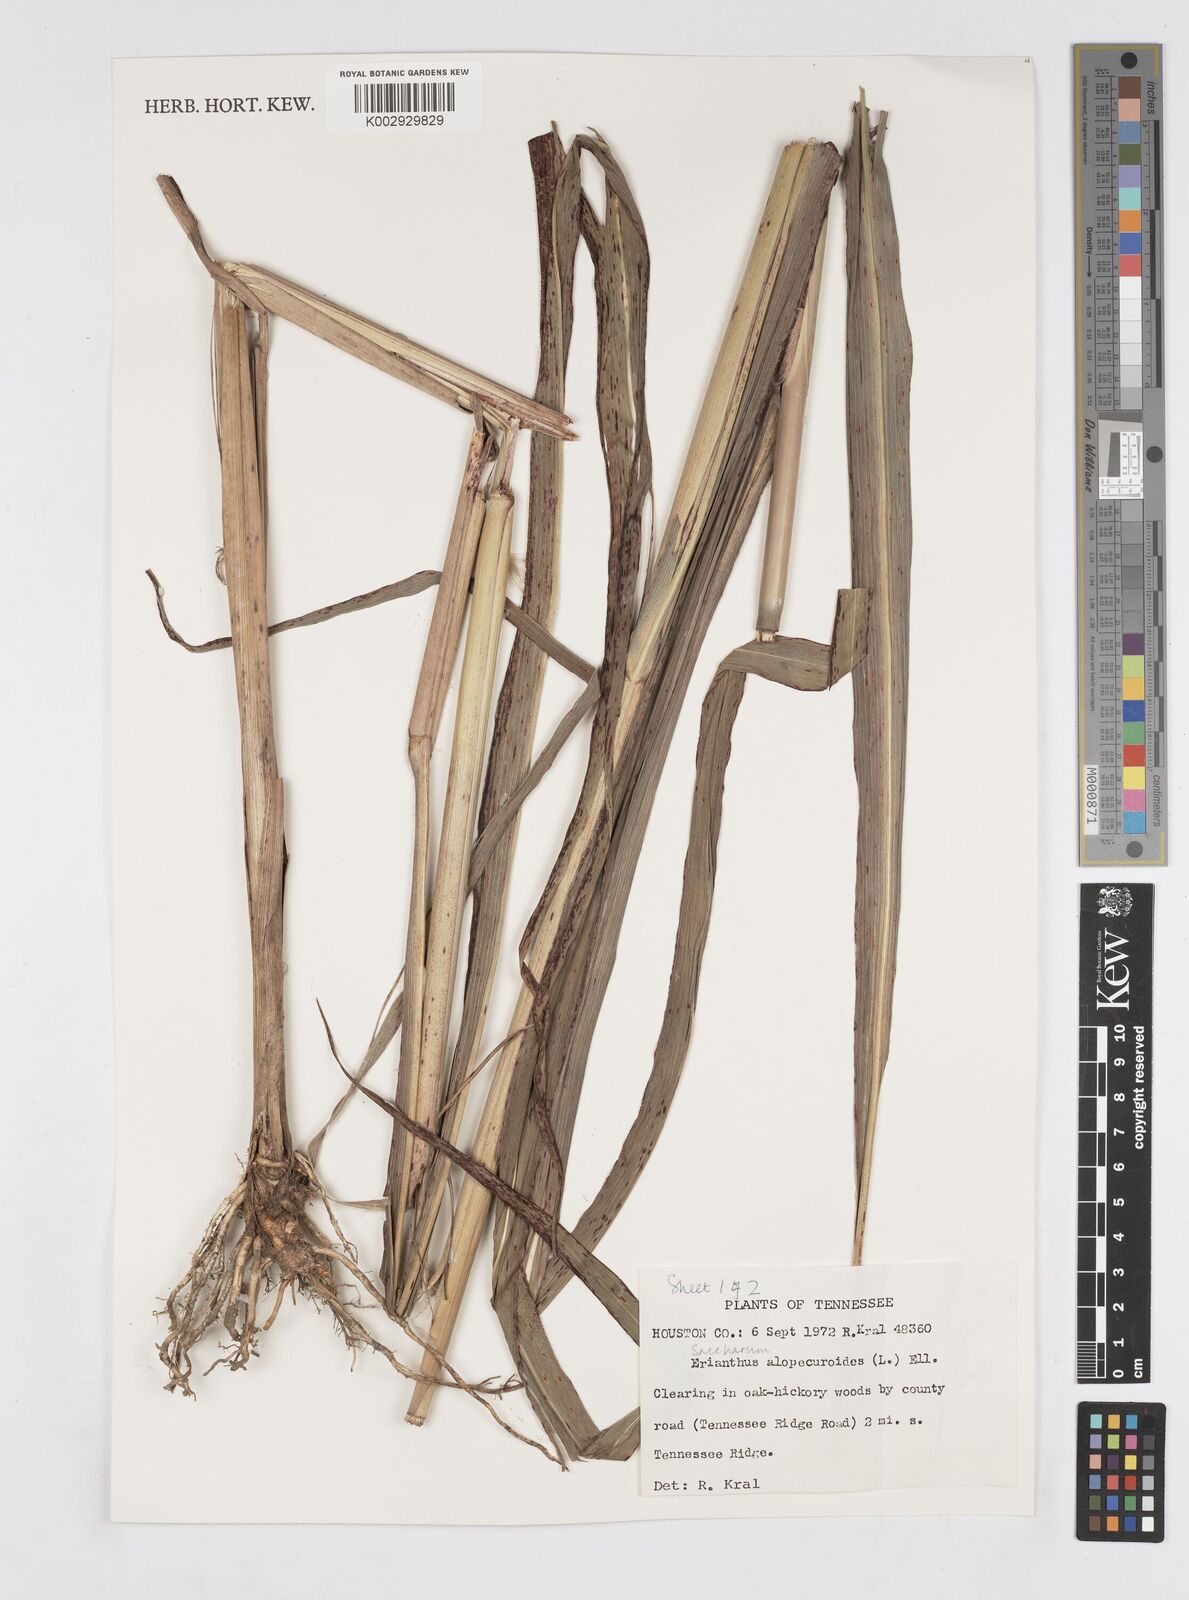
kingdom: Plantae
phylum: Tracheophyta
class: Liliopsida
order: Poales
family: Poaceae
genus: Erianthus
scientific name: Erianthus alopecuroides
